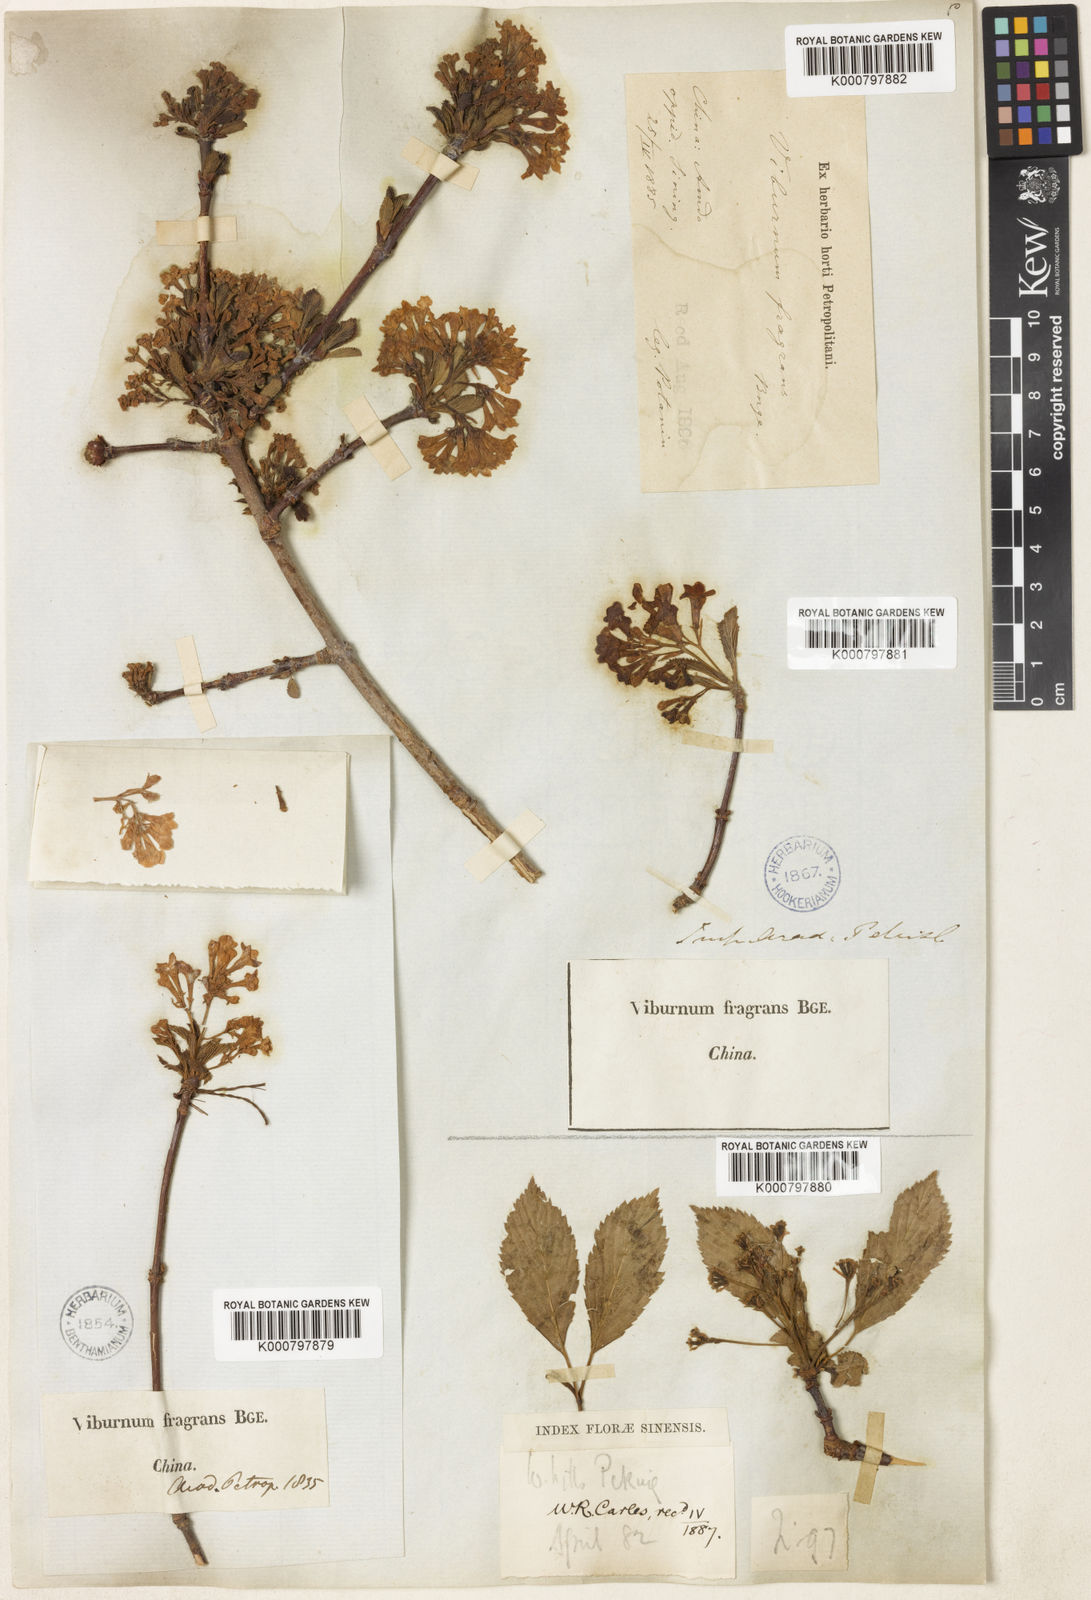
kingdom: Plantae
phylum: Tracheophyta
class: Magnoliopsida
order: Dipsacales
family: Viburnaceae
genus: Viburnum
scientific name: Viburnum farreri
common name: Farrer's viburnum
